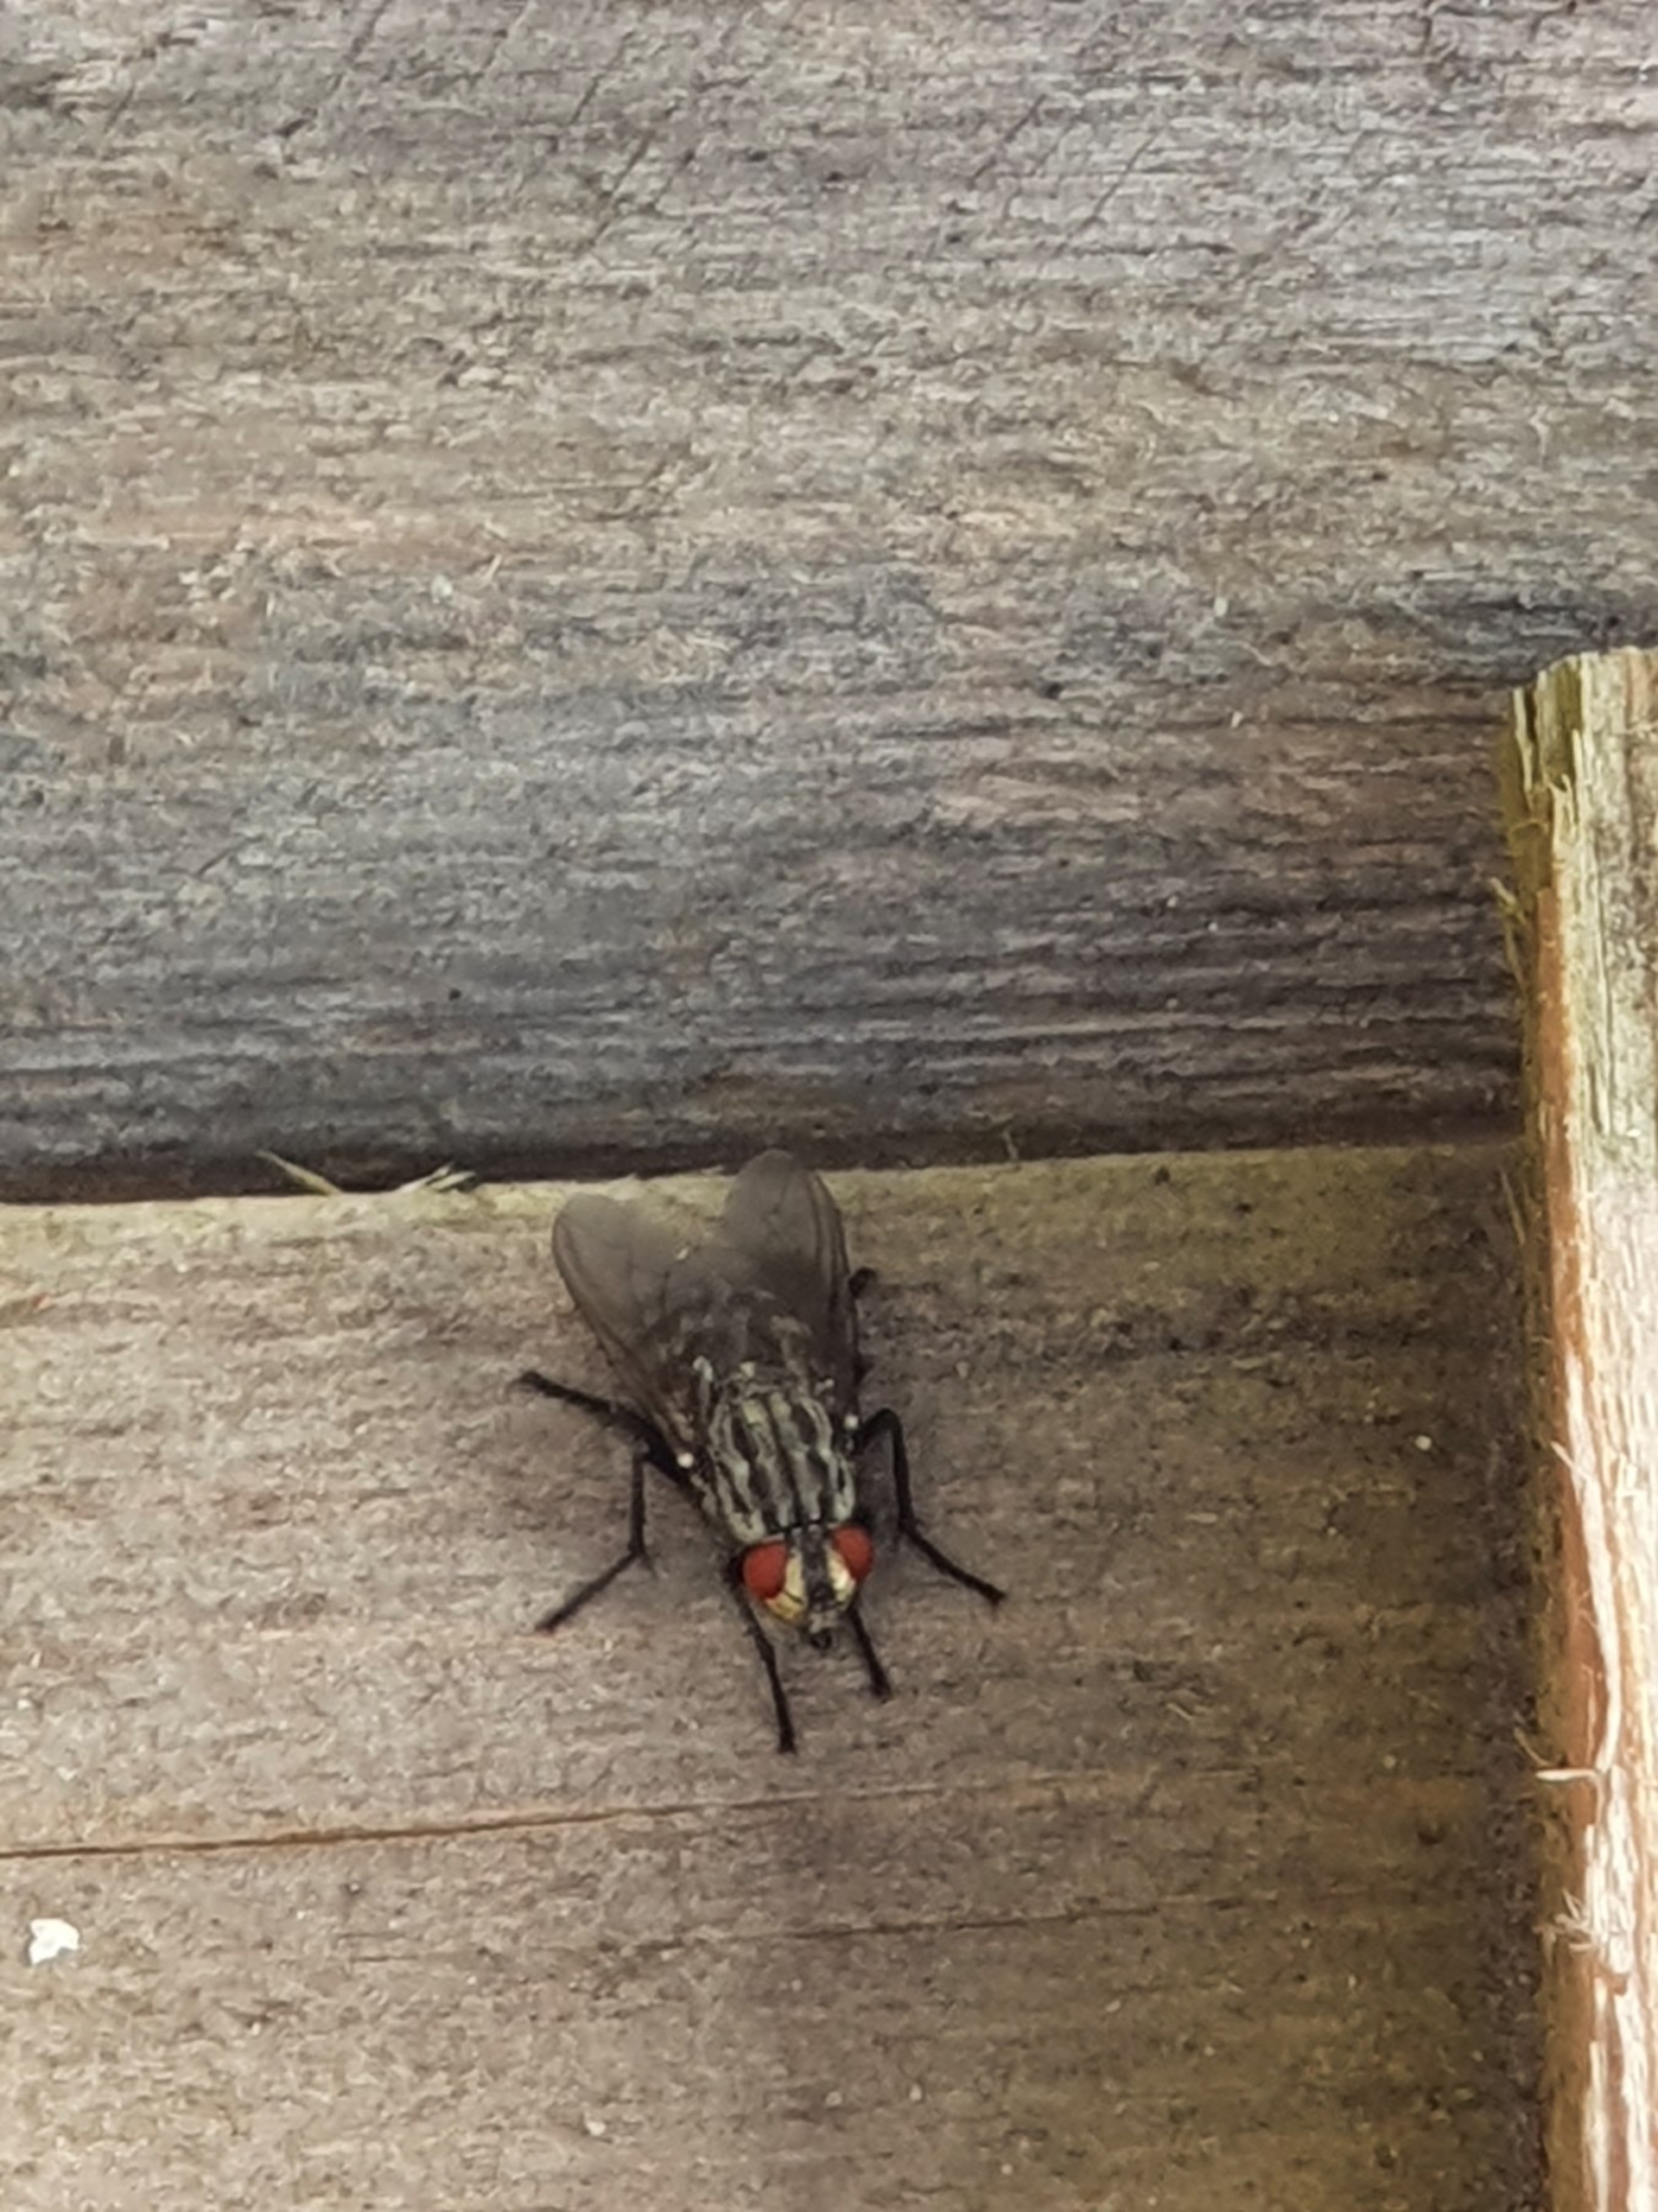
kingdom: Animalia
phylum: Arthropoda
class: Insecta
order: Diptera
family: Sarcophagidae
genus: Sarcophaga
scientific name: Sarcophaga
